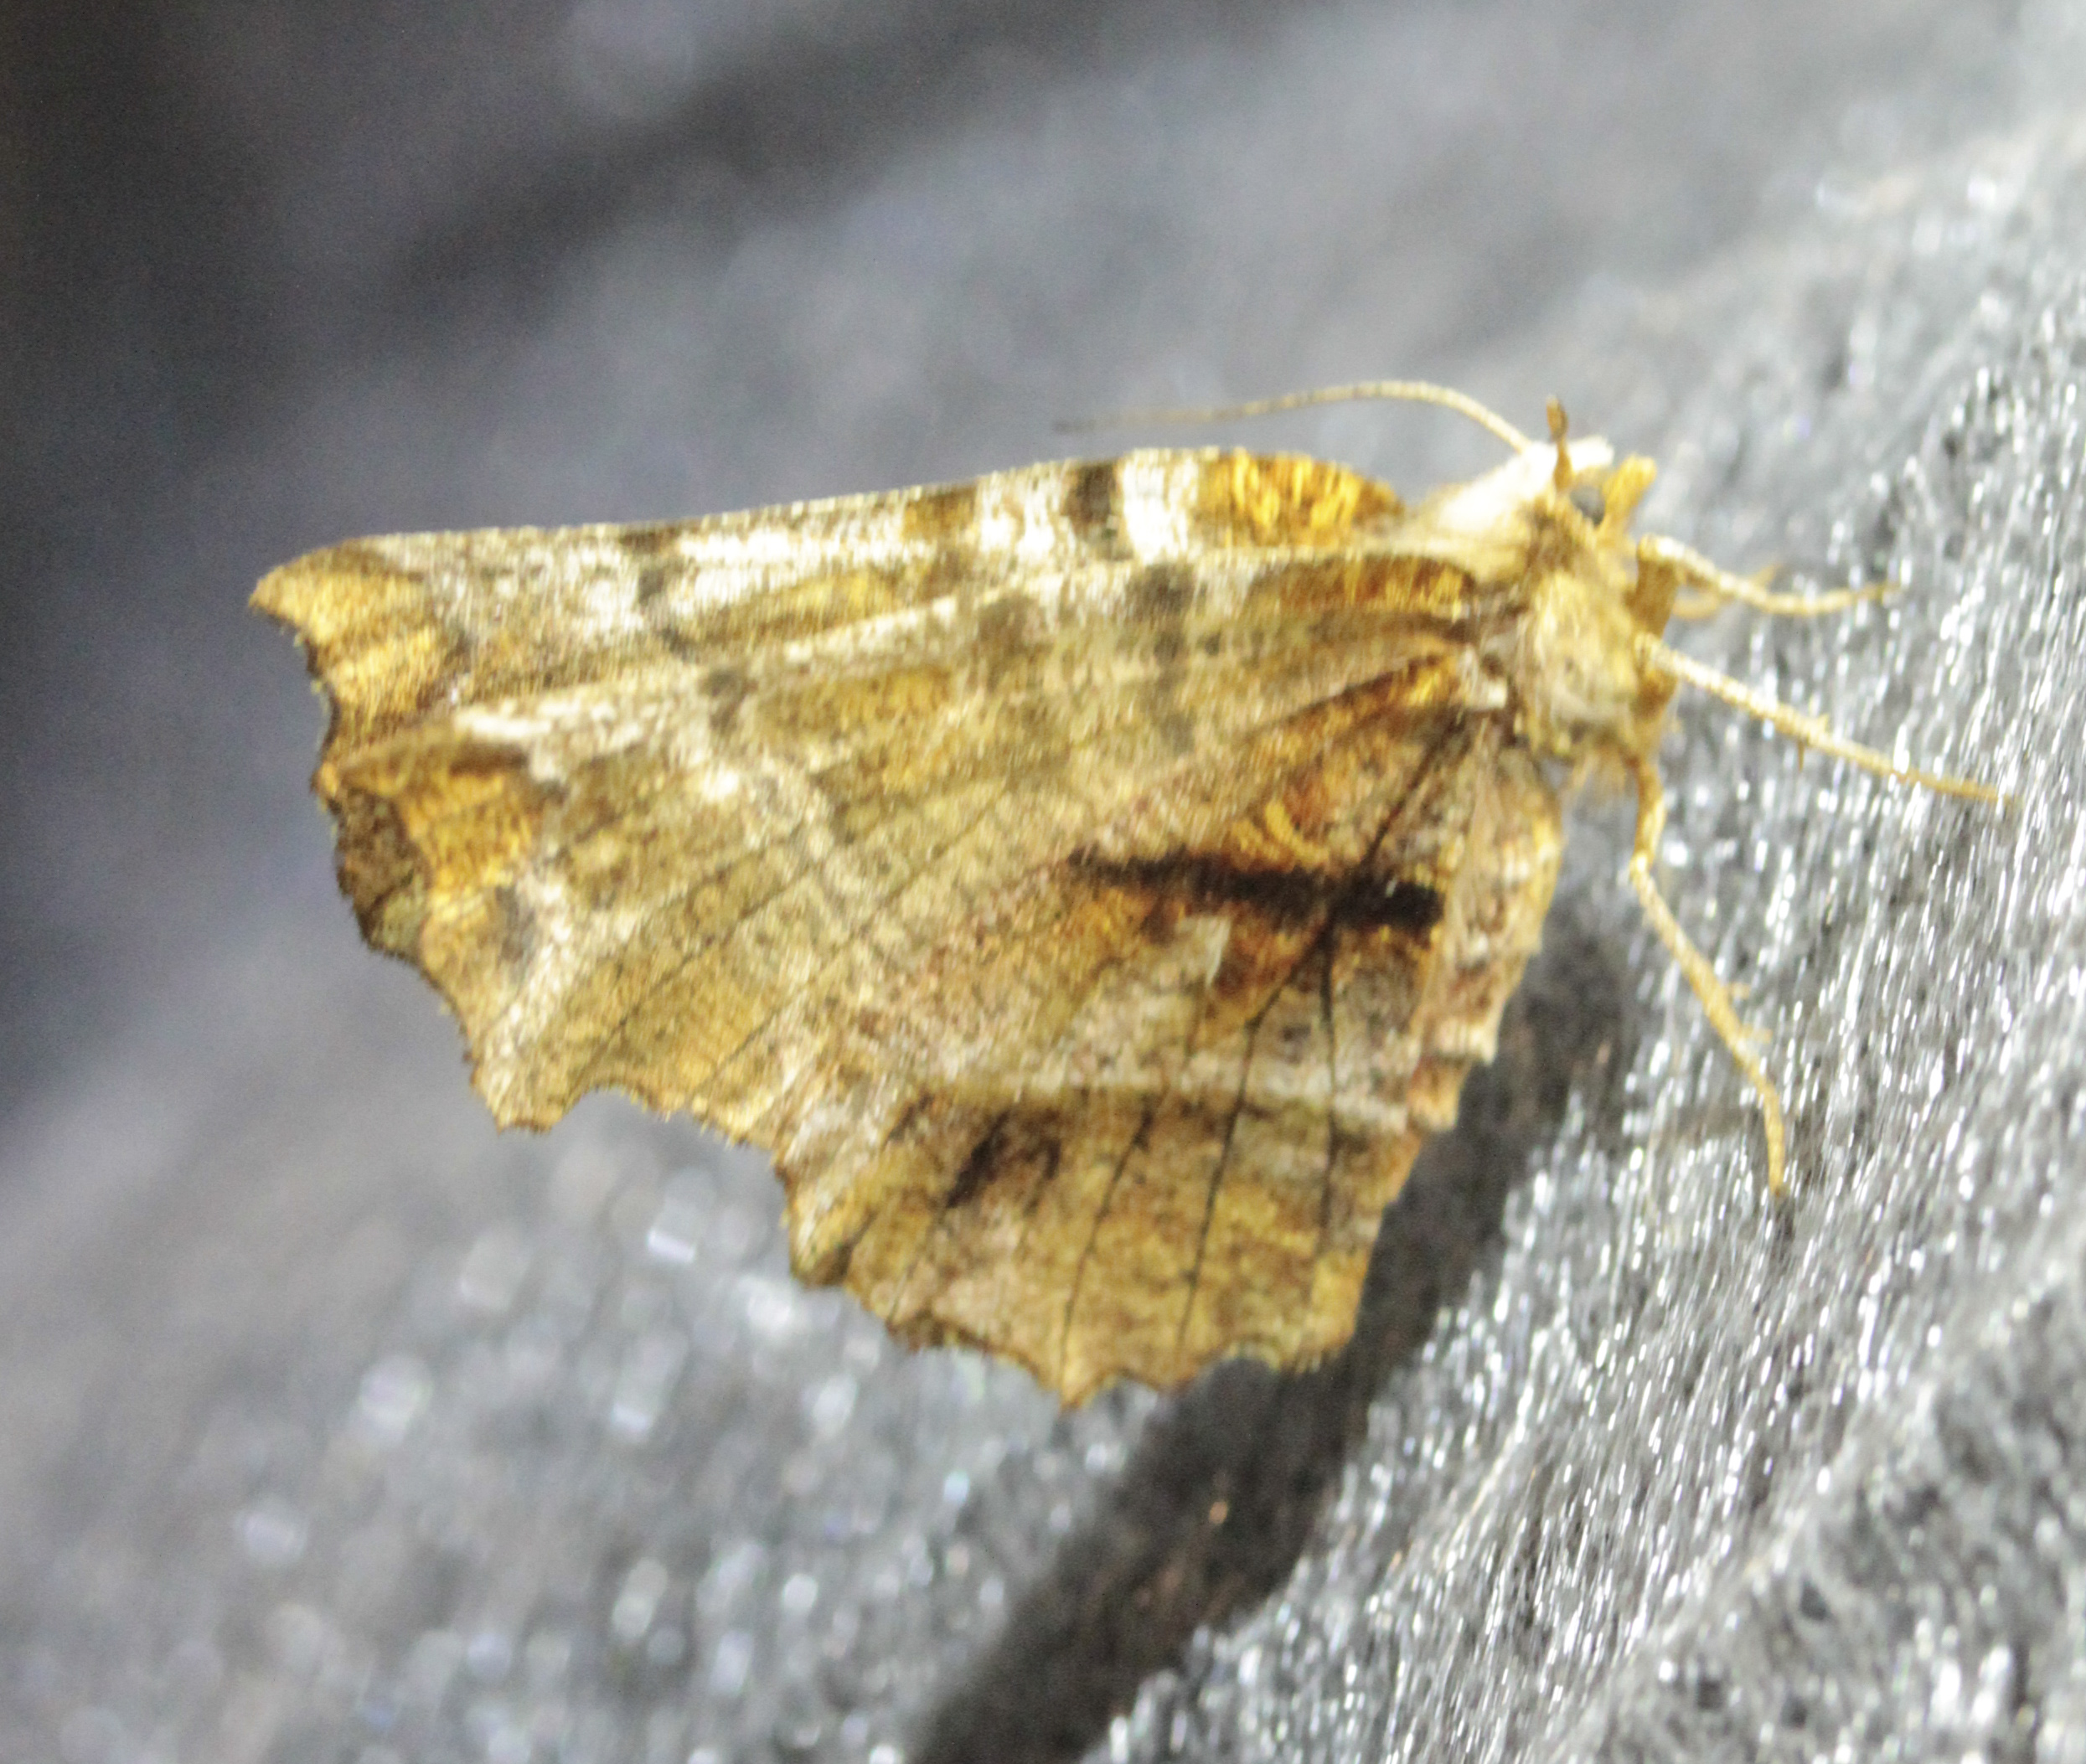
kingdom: Animalia
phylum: Arthropoda
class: Insecta
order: Lepidoptera
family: Geometridae
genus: Selenia
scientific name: Selenia dentaria
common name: Early thorn
